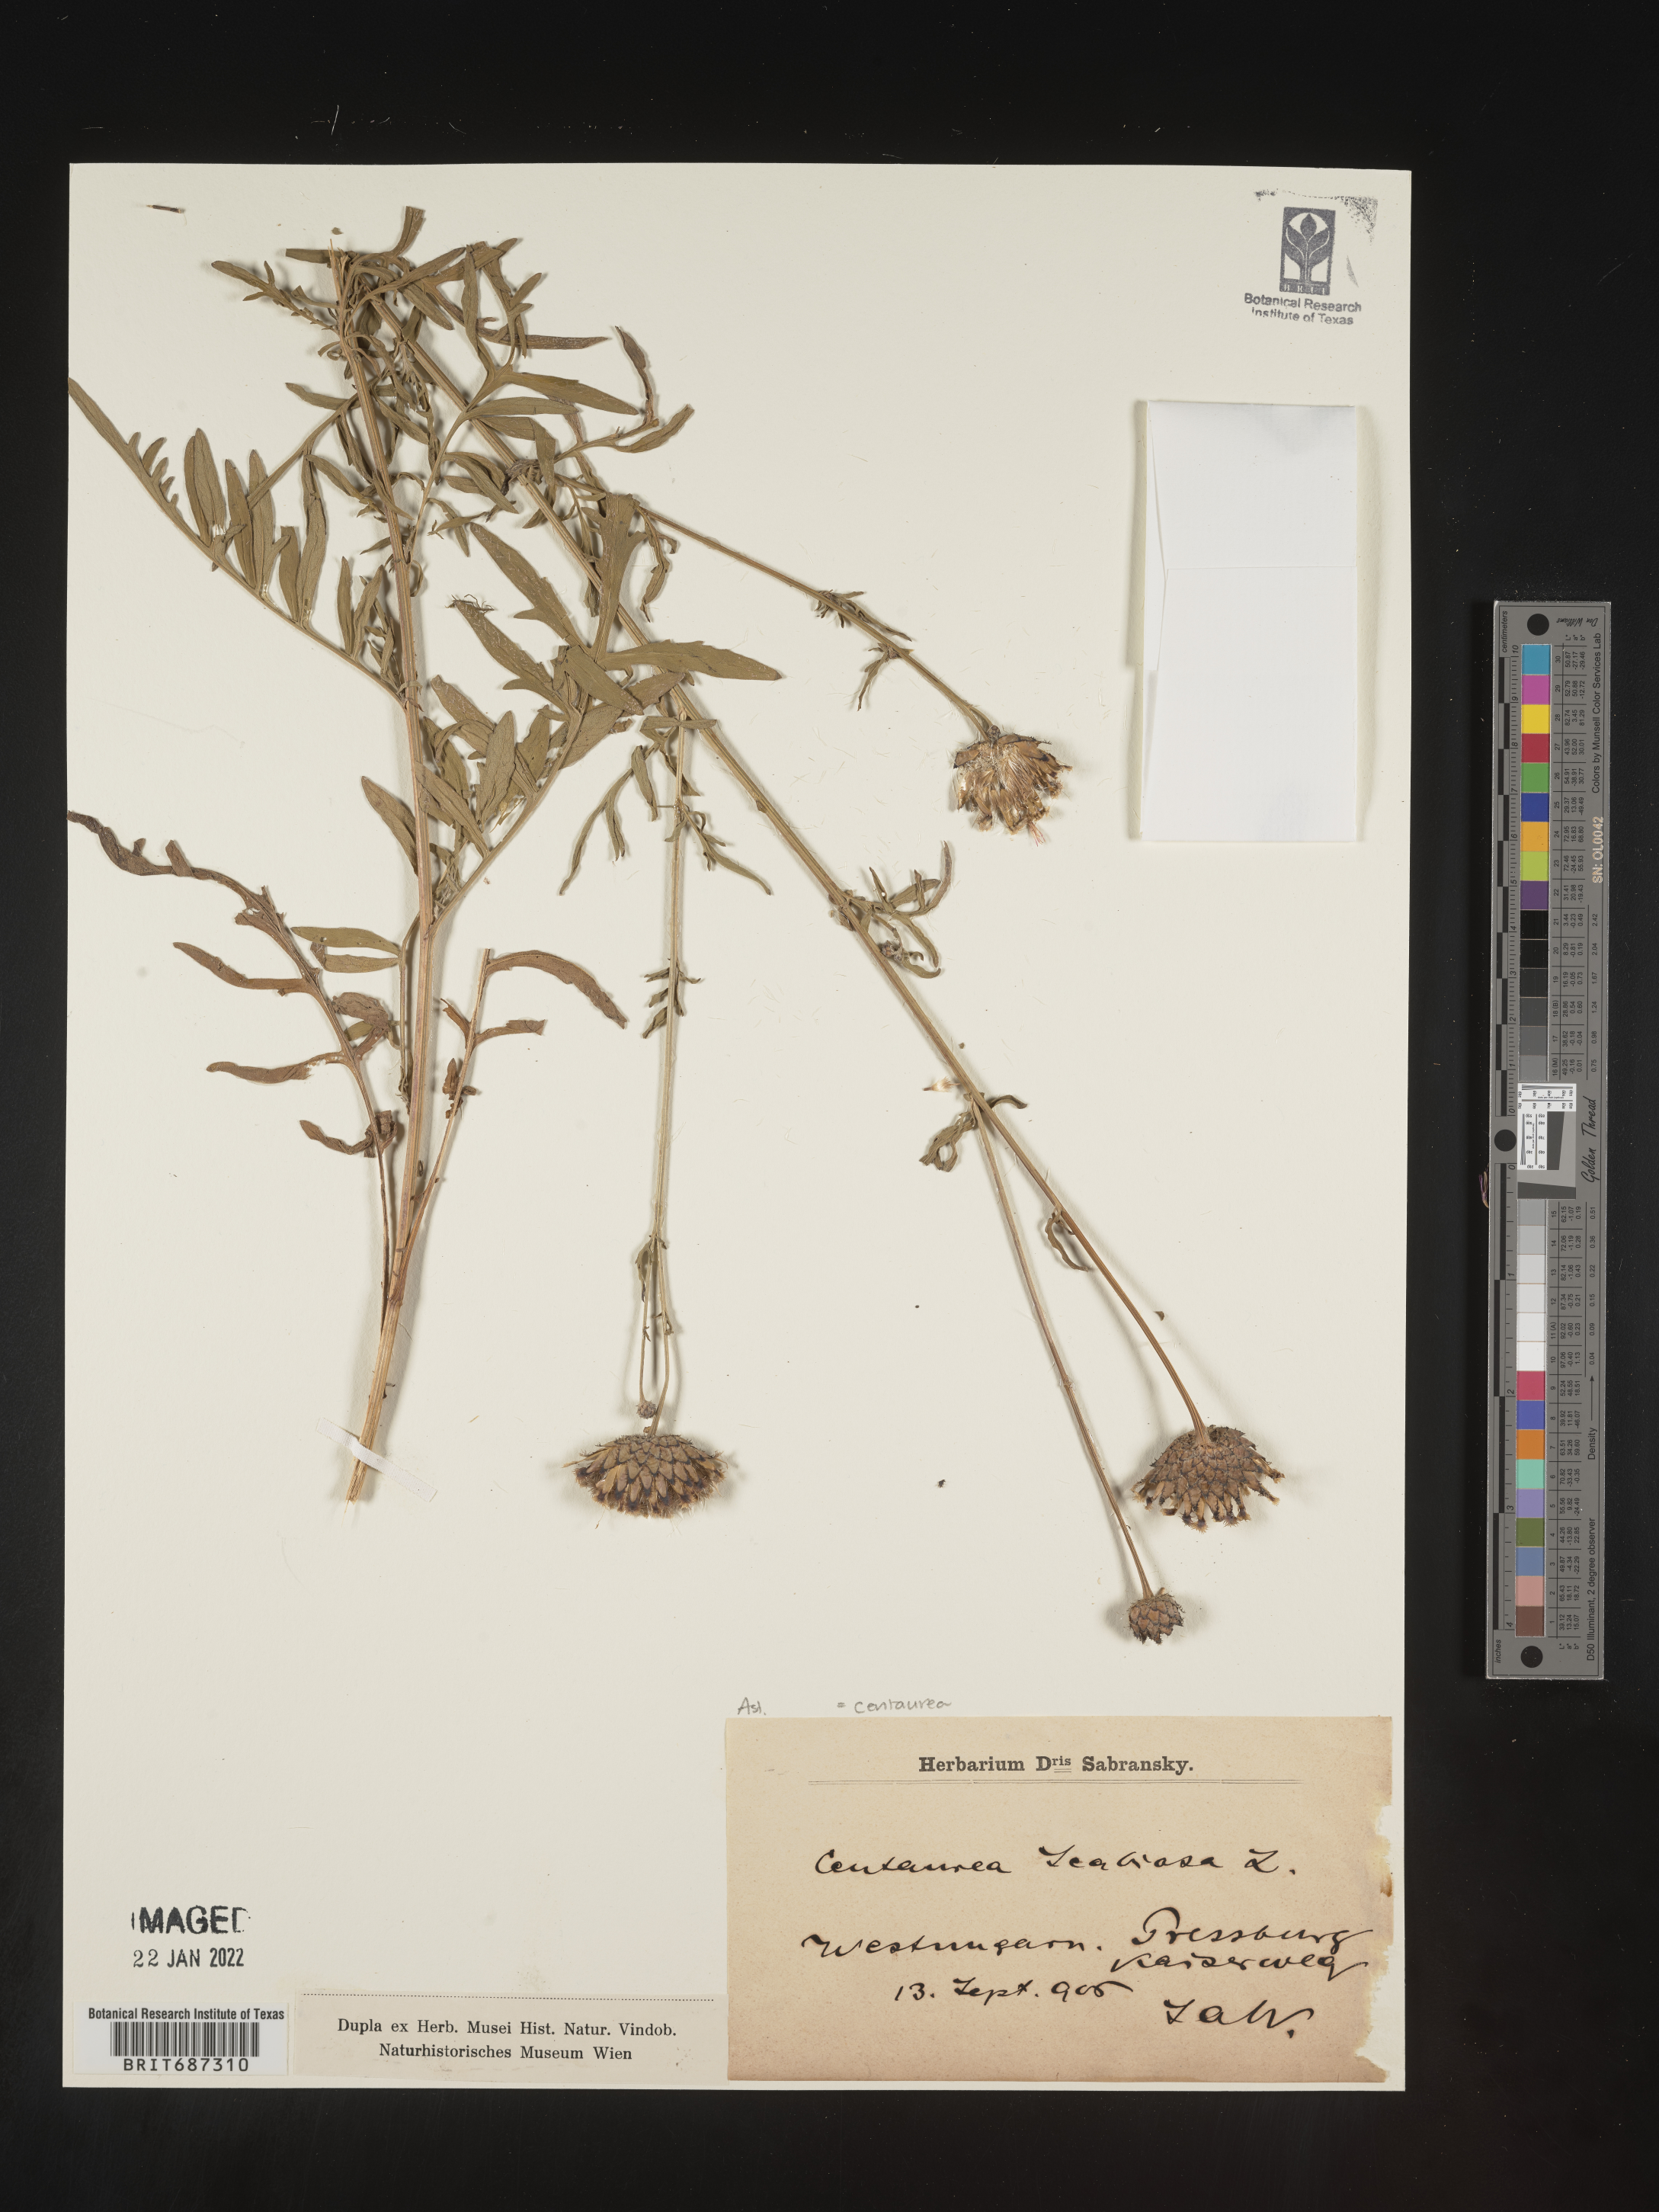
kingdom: Plantae
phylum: Tracheophyta
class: Magnoliopsida
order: Asterales
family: Asteraceae
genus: Centaurea
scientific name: Centaurea
